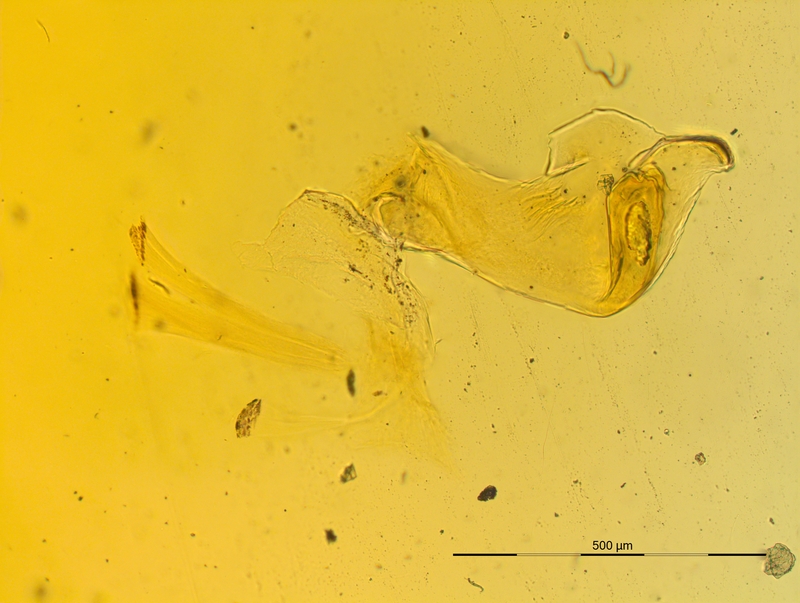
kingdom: Animalia
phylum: Arthropoda
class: Diplopoda
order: Chordeumatida
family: Craspedosomatidae
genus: Craspedosoma
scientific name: Craspedosoma rawlinsii
